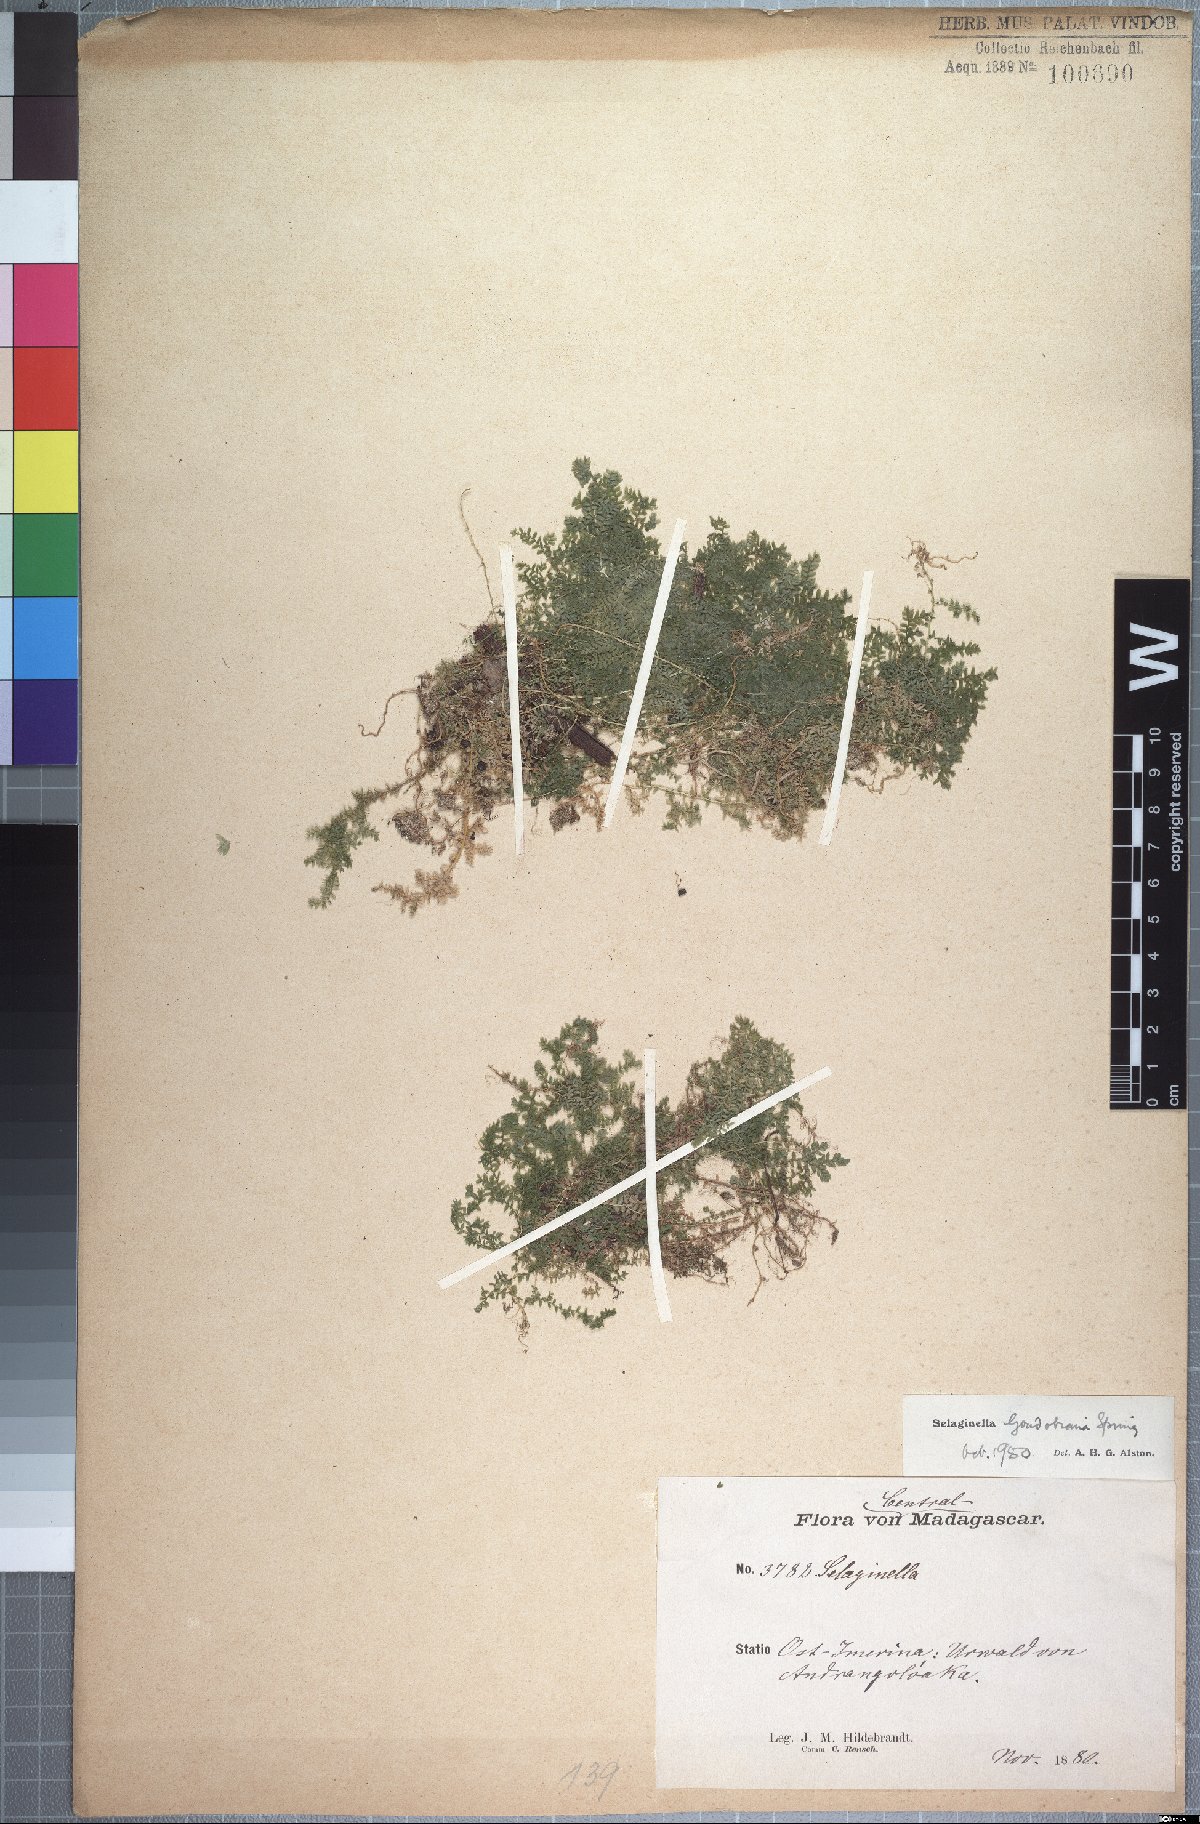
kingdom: Plantae
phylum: Tracheophyta
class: Lycopodiopsida
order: Selaginellales
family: Selaginellaceae
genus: Selaginella
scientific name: Selaginella goudotiana
